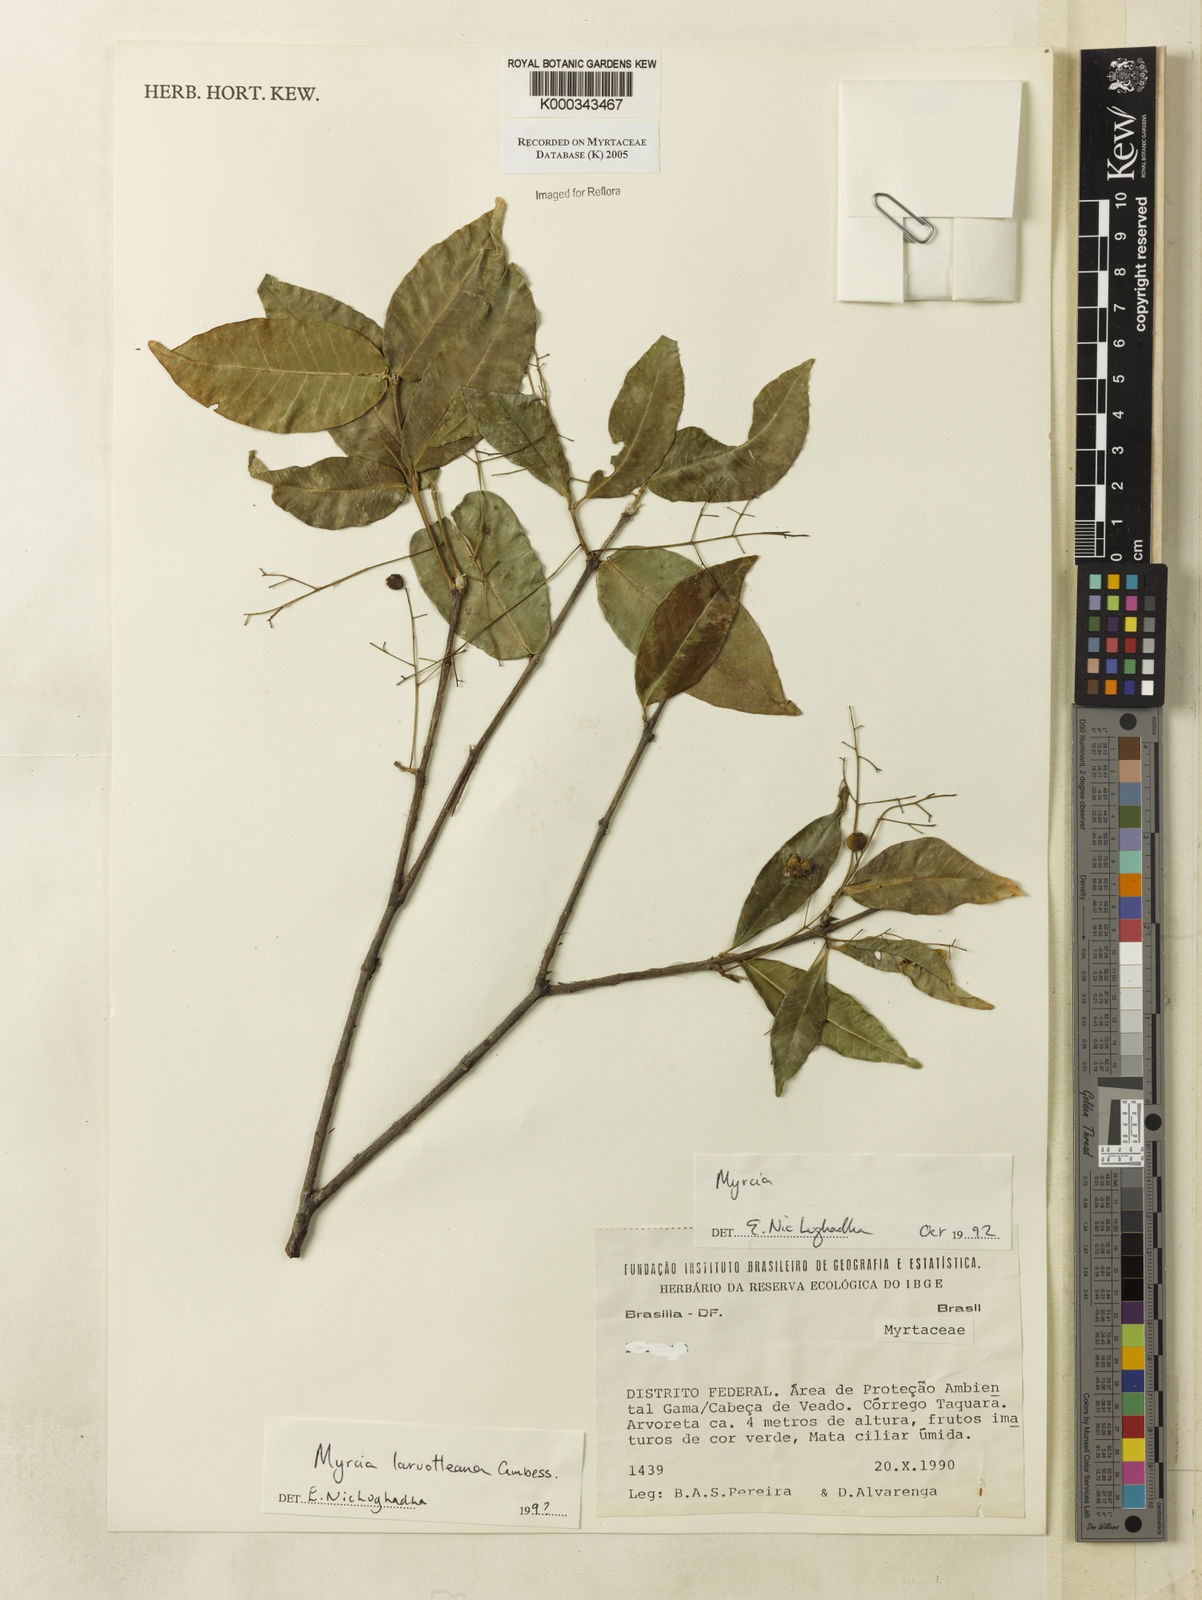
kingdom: Plantae
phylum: Tracheophyta
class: Magnoliopsida
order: Myrtales
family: Myrtaceae
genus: Myrcia
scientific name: Myrcia laruotteana
